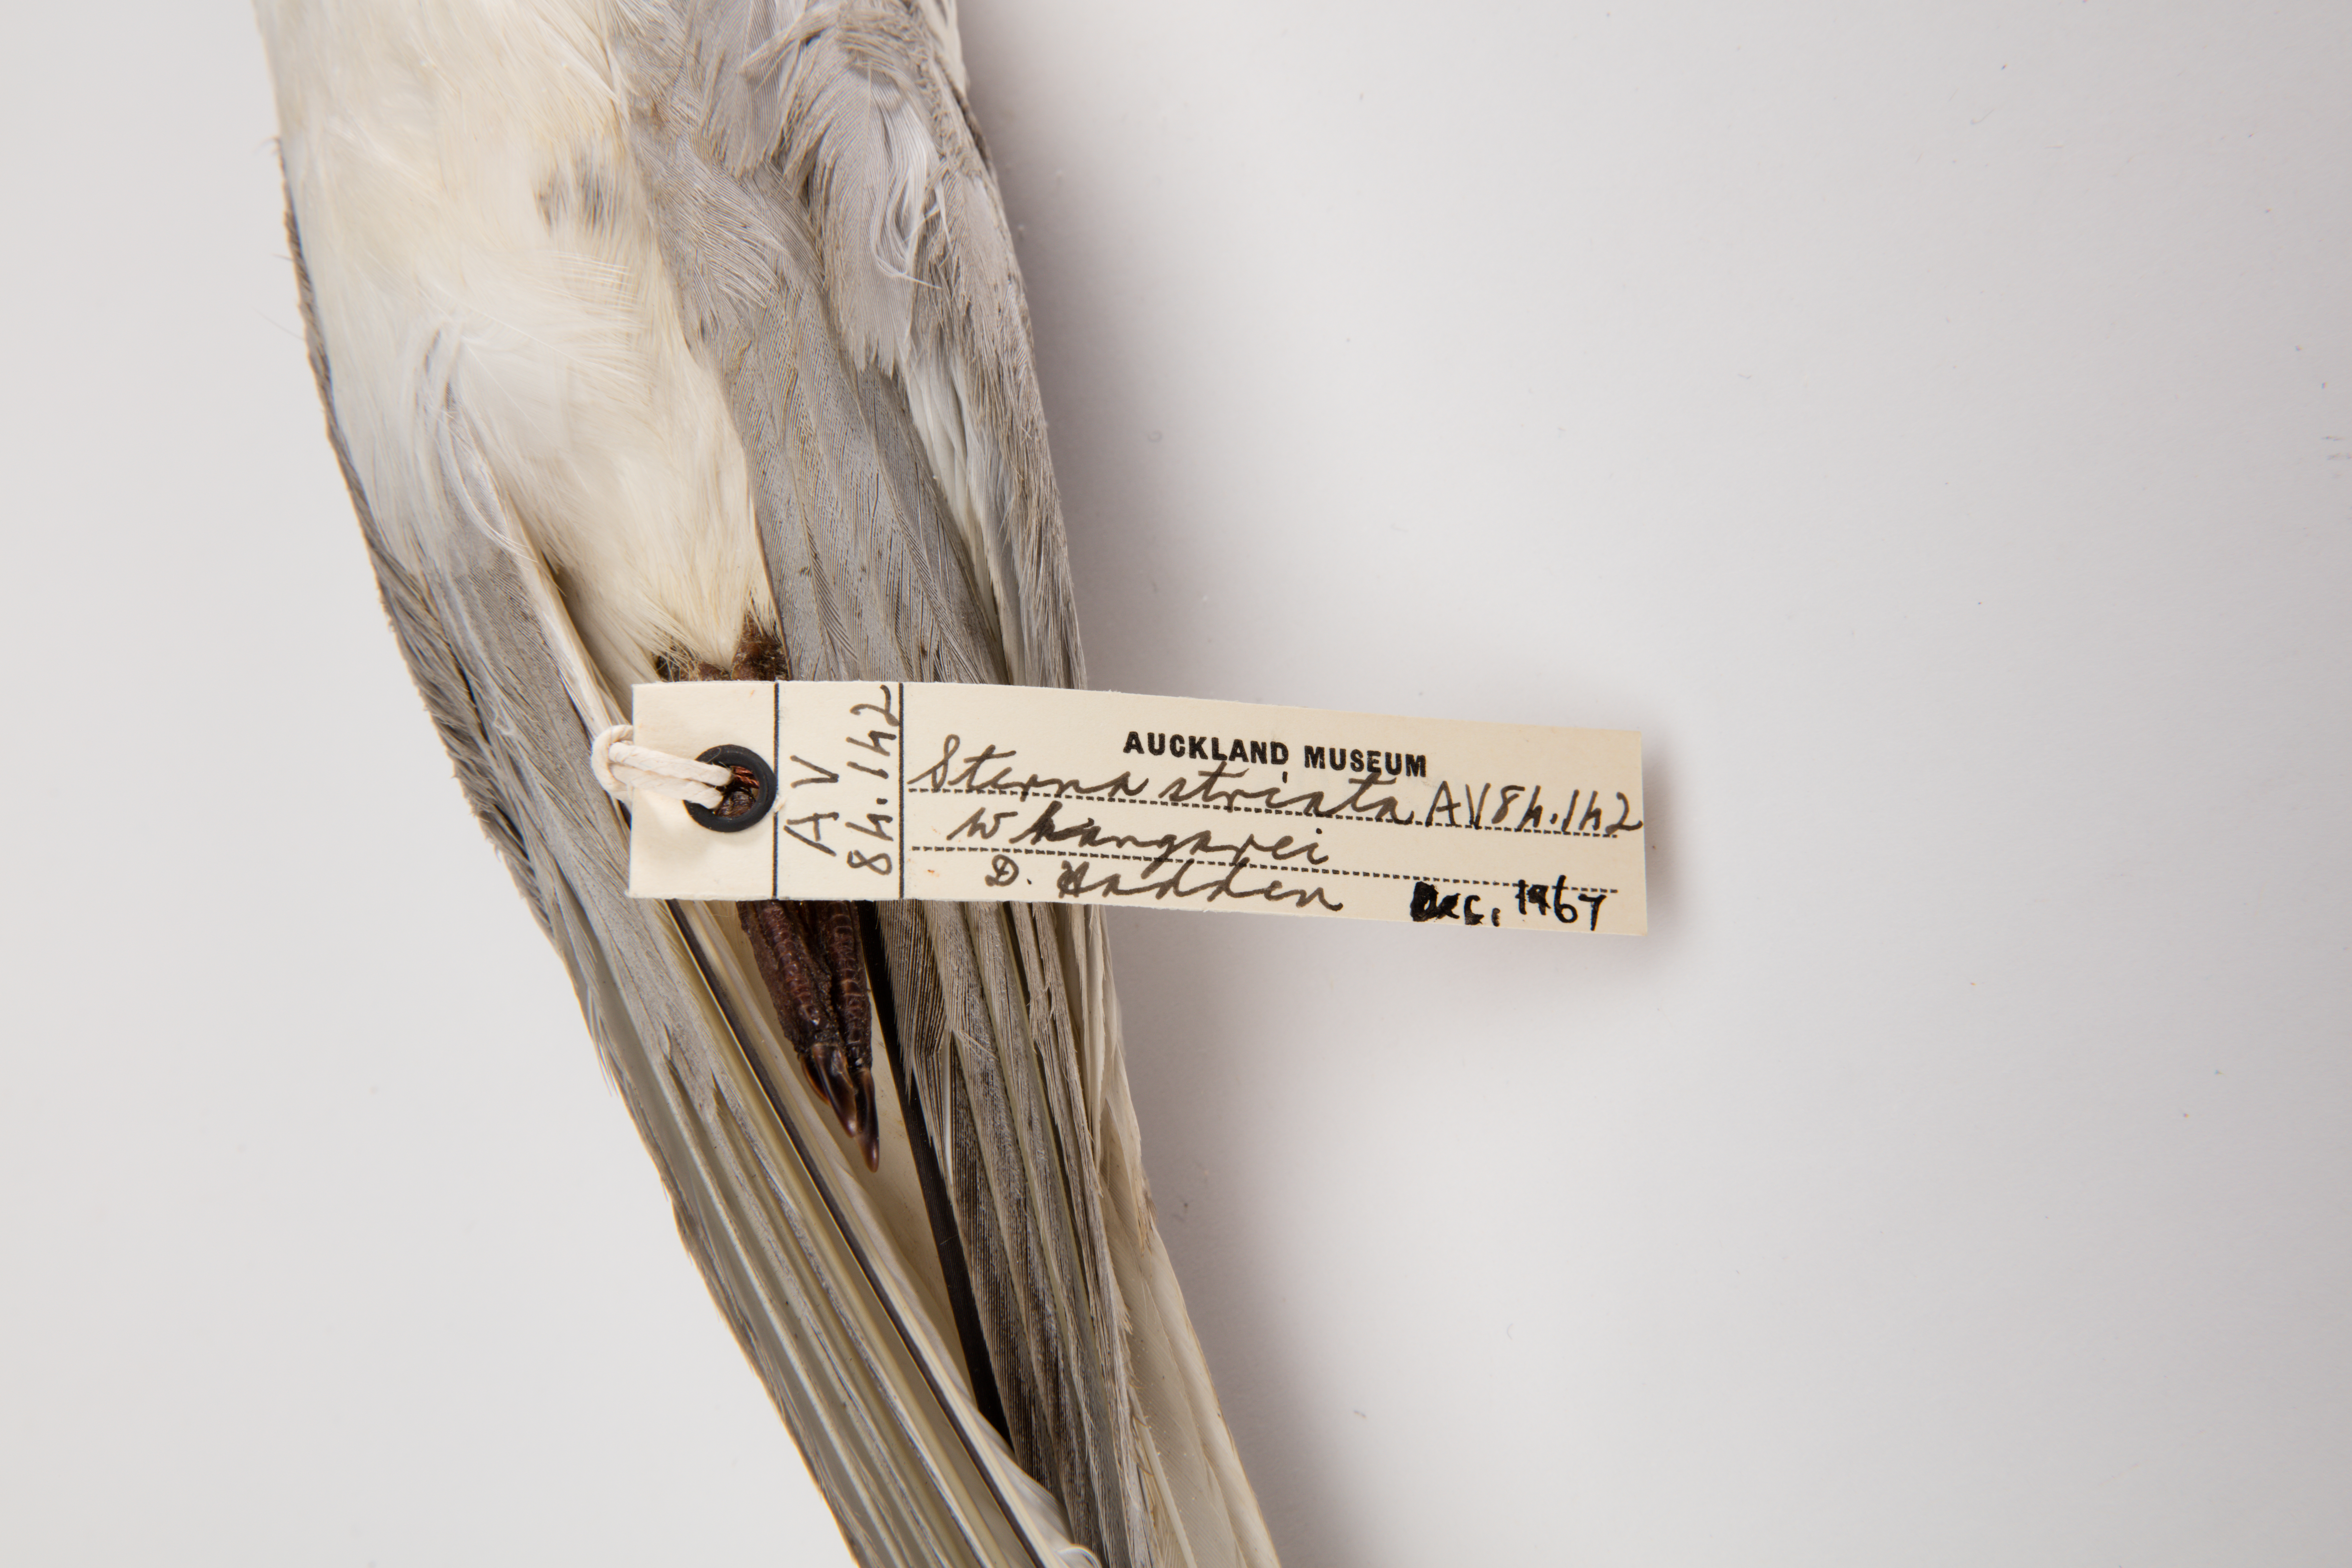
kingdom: Animalia
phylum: Chordata
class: Aves
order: Charadriiformes
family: Laridae
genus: Sterna
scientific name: Sterna striata
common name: White-fronted tern
